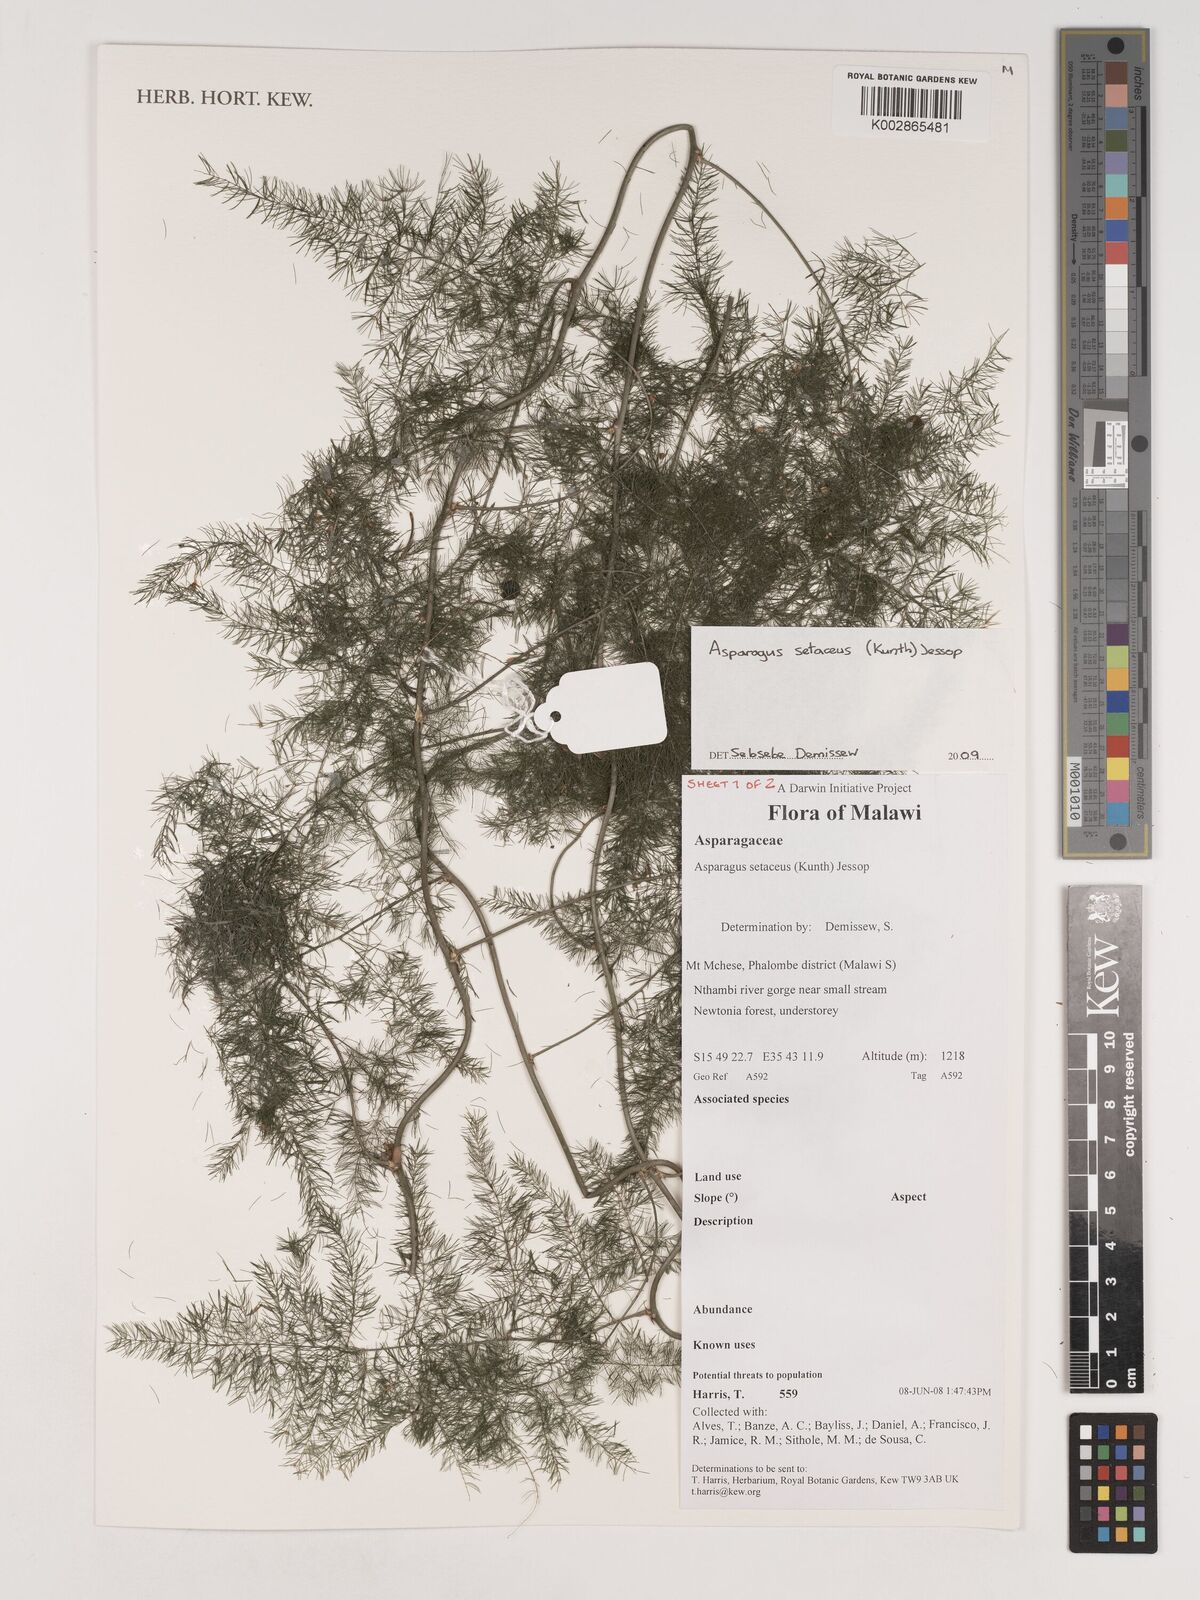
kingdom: Plantae
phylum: Tracheophyta
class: Liliopsida
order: Asparagales
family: Asparagaceae
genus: Asparagus
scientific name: Asparagus setaceus
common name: Common asparagus fern
